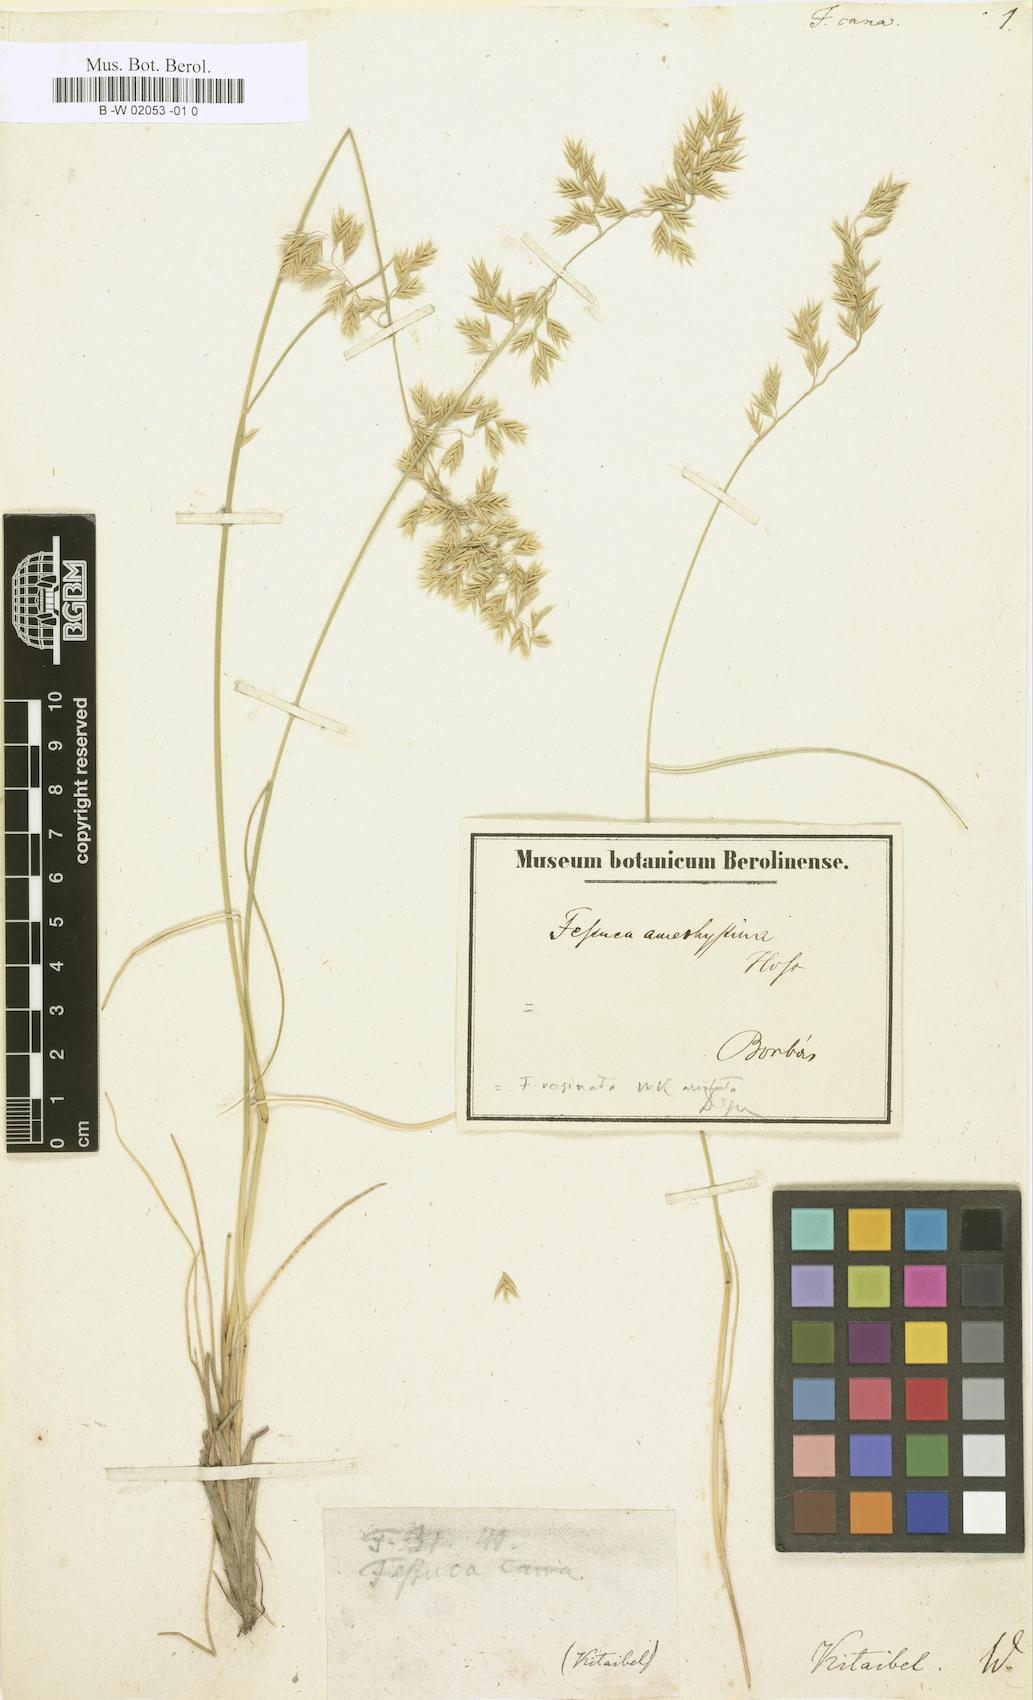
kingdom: Plantae
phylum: Tracheophyta
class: Liliopsida
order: Poales
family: Poaceae
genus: Festuca
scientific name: Festuca vaginata
